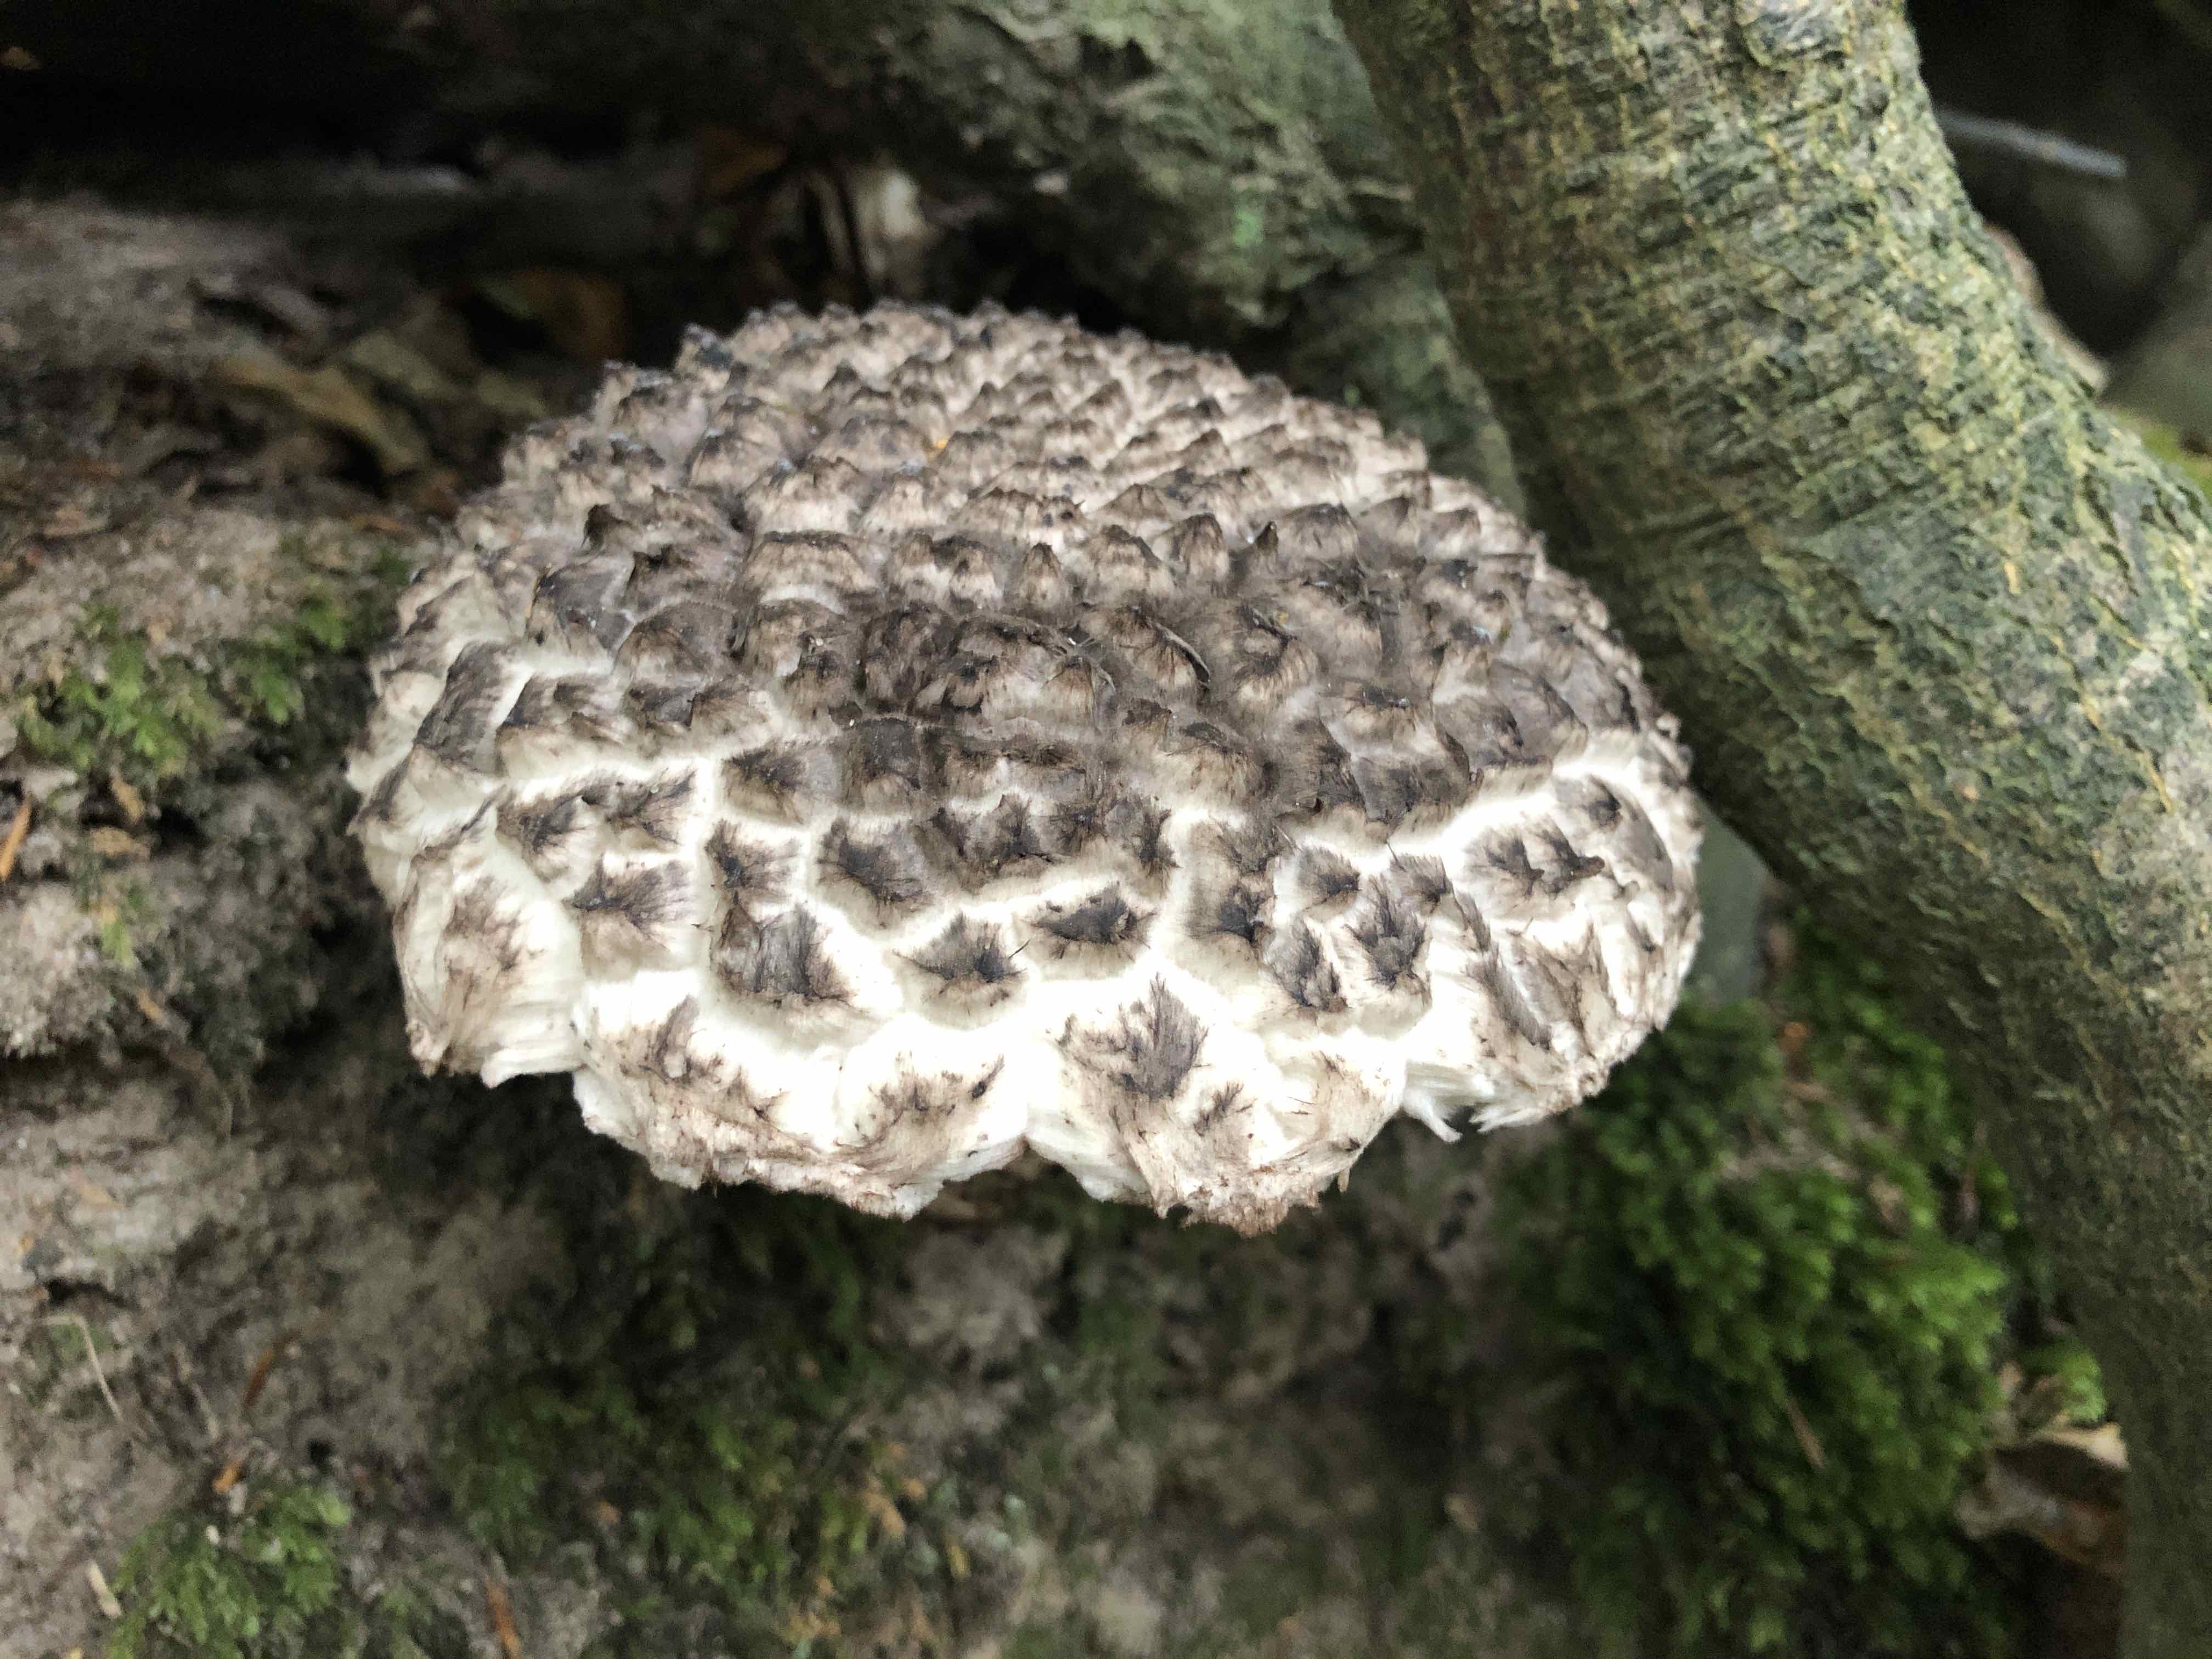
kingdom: Fungi
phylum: Basidiomycota
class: Agaricomycetes
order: Boletales
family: Boletaceae
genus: Strobilomyces
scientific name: Strobilomyces strobilaceus
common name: koglerørhat
